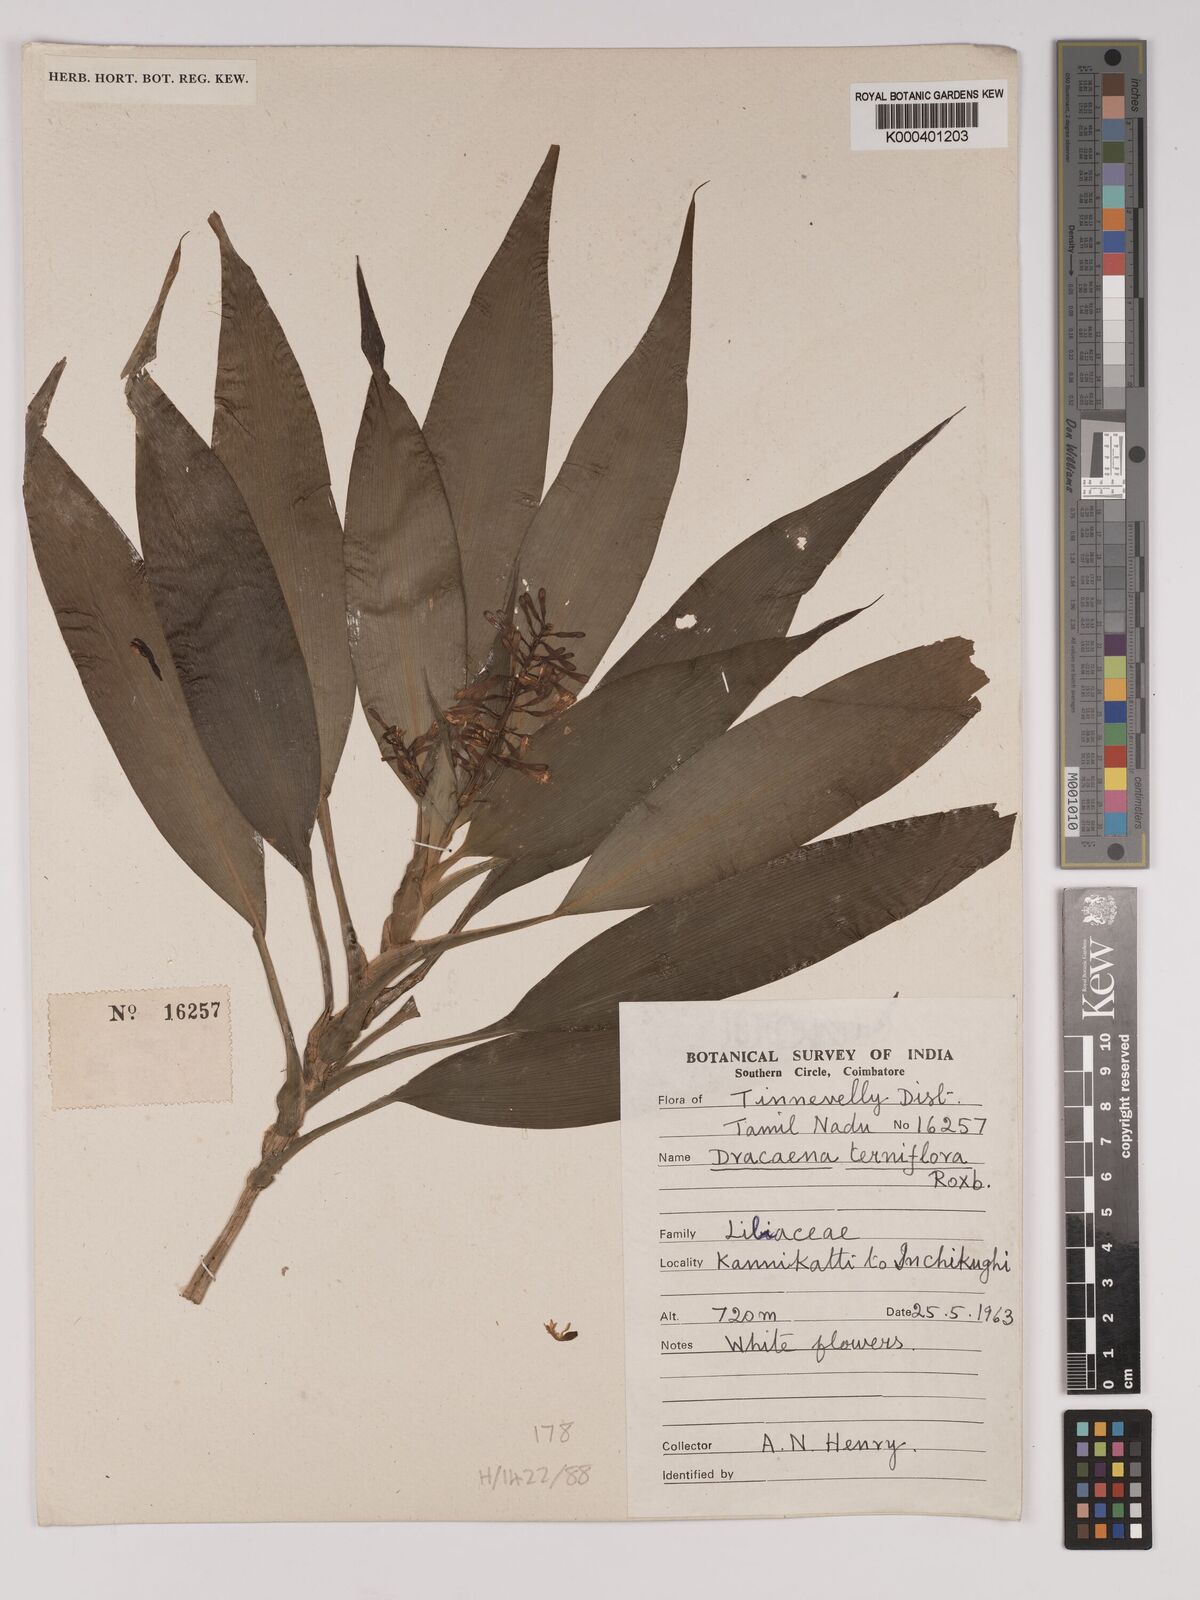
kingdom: Plantae
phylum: Tracheophyta
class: Liliopsida
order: Asparagales
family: Asparagaceae
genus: Dracaena
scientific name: Dracaena terniflora
